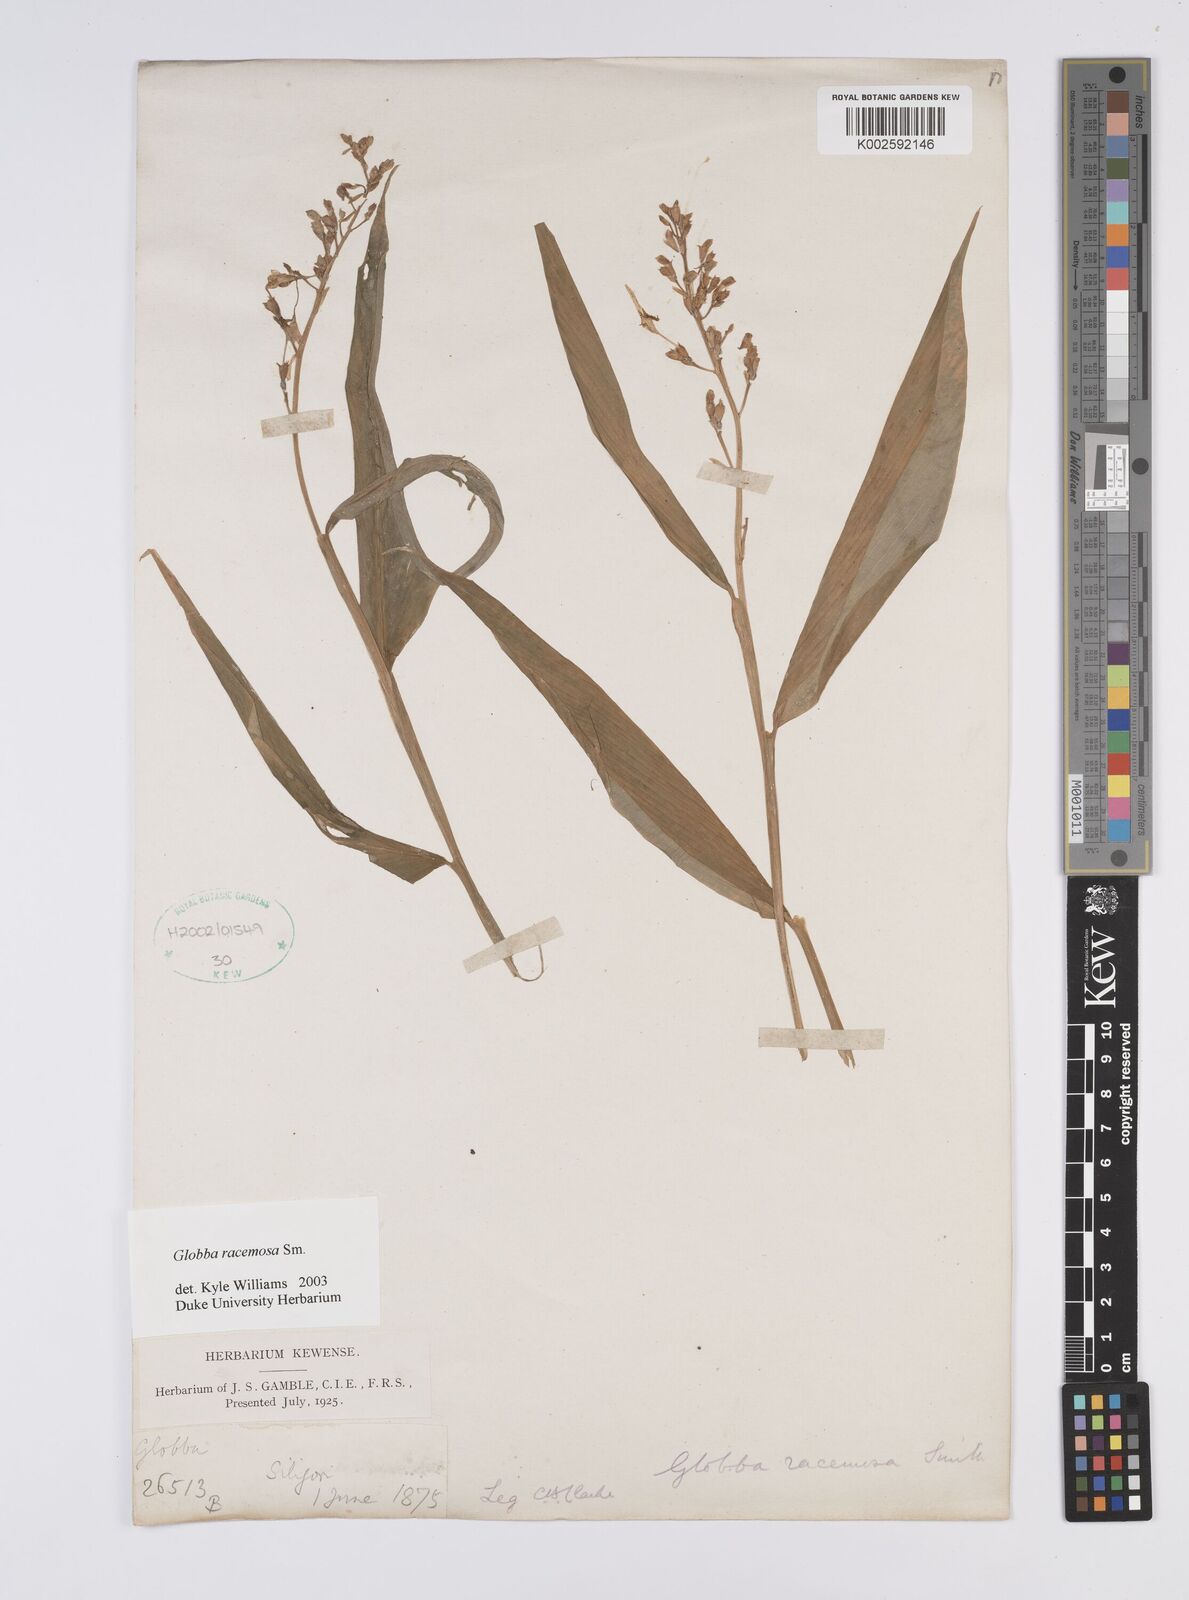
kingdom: Plantae
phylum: Tracheophyta
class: Liliopsida
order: Zingiberales
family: Zingiberaceae
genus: Globba
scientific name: Globba racemosa
